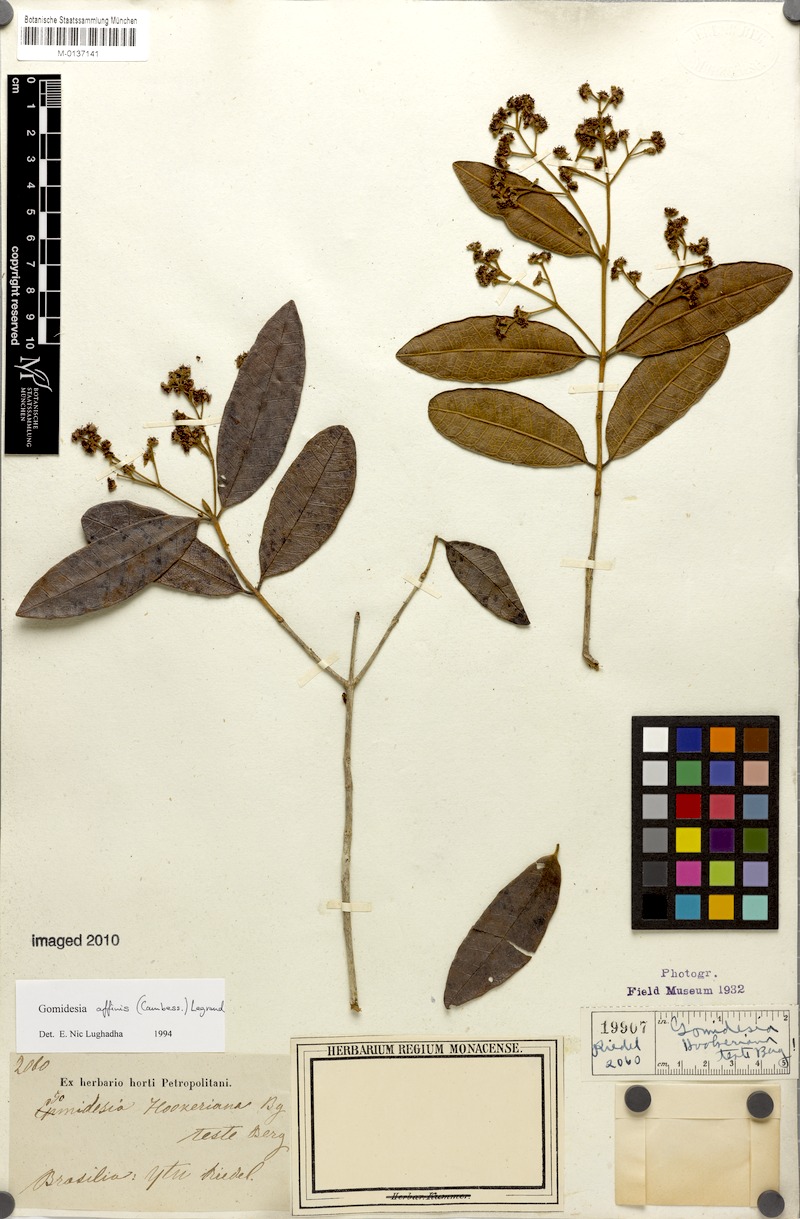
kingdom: Plantae
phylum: Tracheophyta
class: Magnoliopsida
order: Myrtales
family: Myrtaceae
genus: Myrcia
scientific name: Myrcia hebepetala
